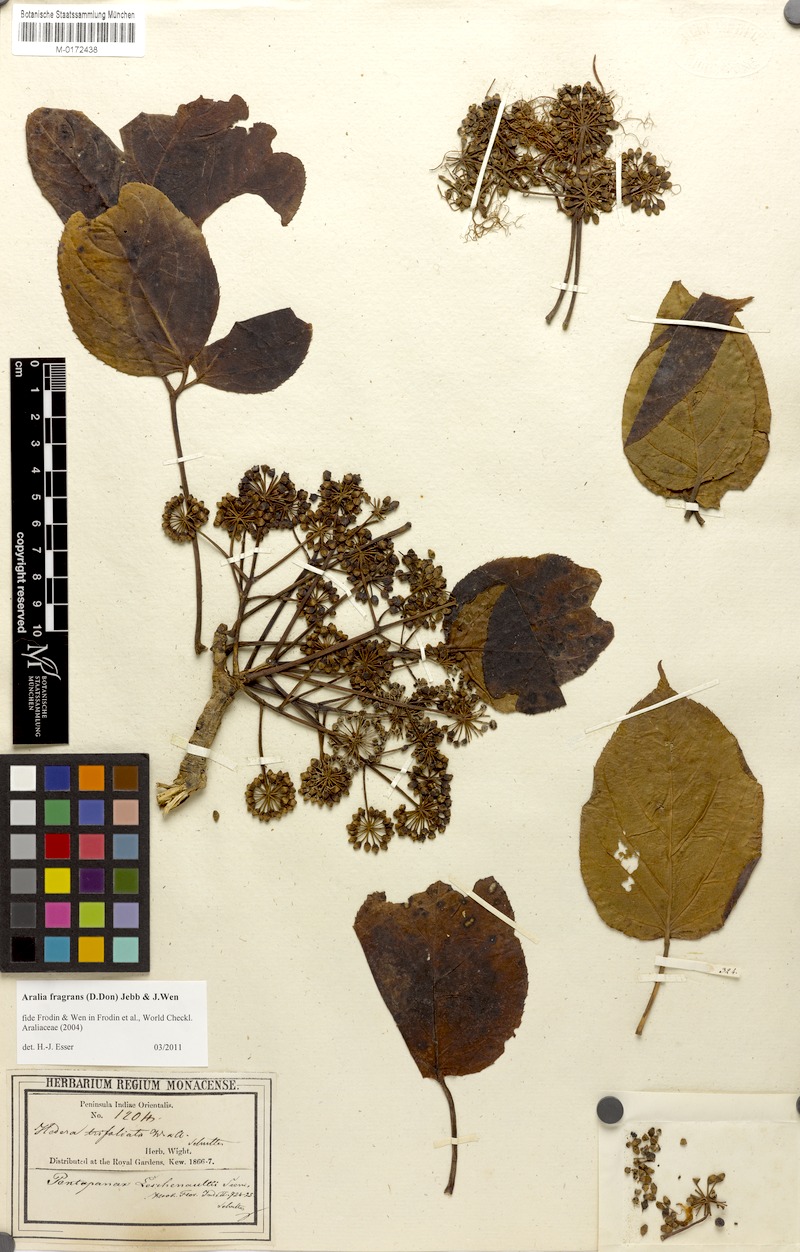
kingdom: Plantae
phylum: Tracheophyta
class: Magnoliopsida
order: Apiales
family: Araliaceae
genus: Aralia
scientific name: Aralia leschenaultii
